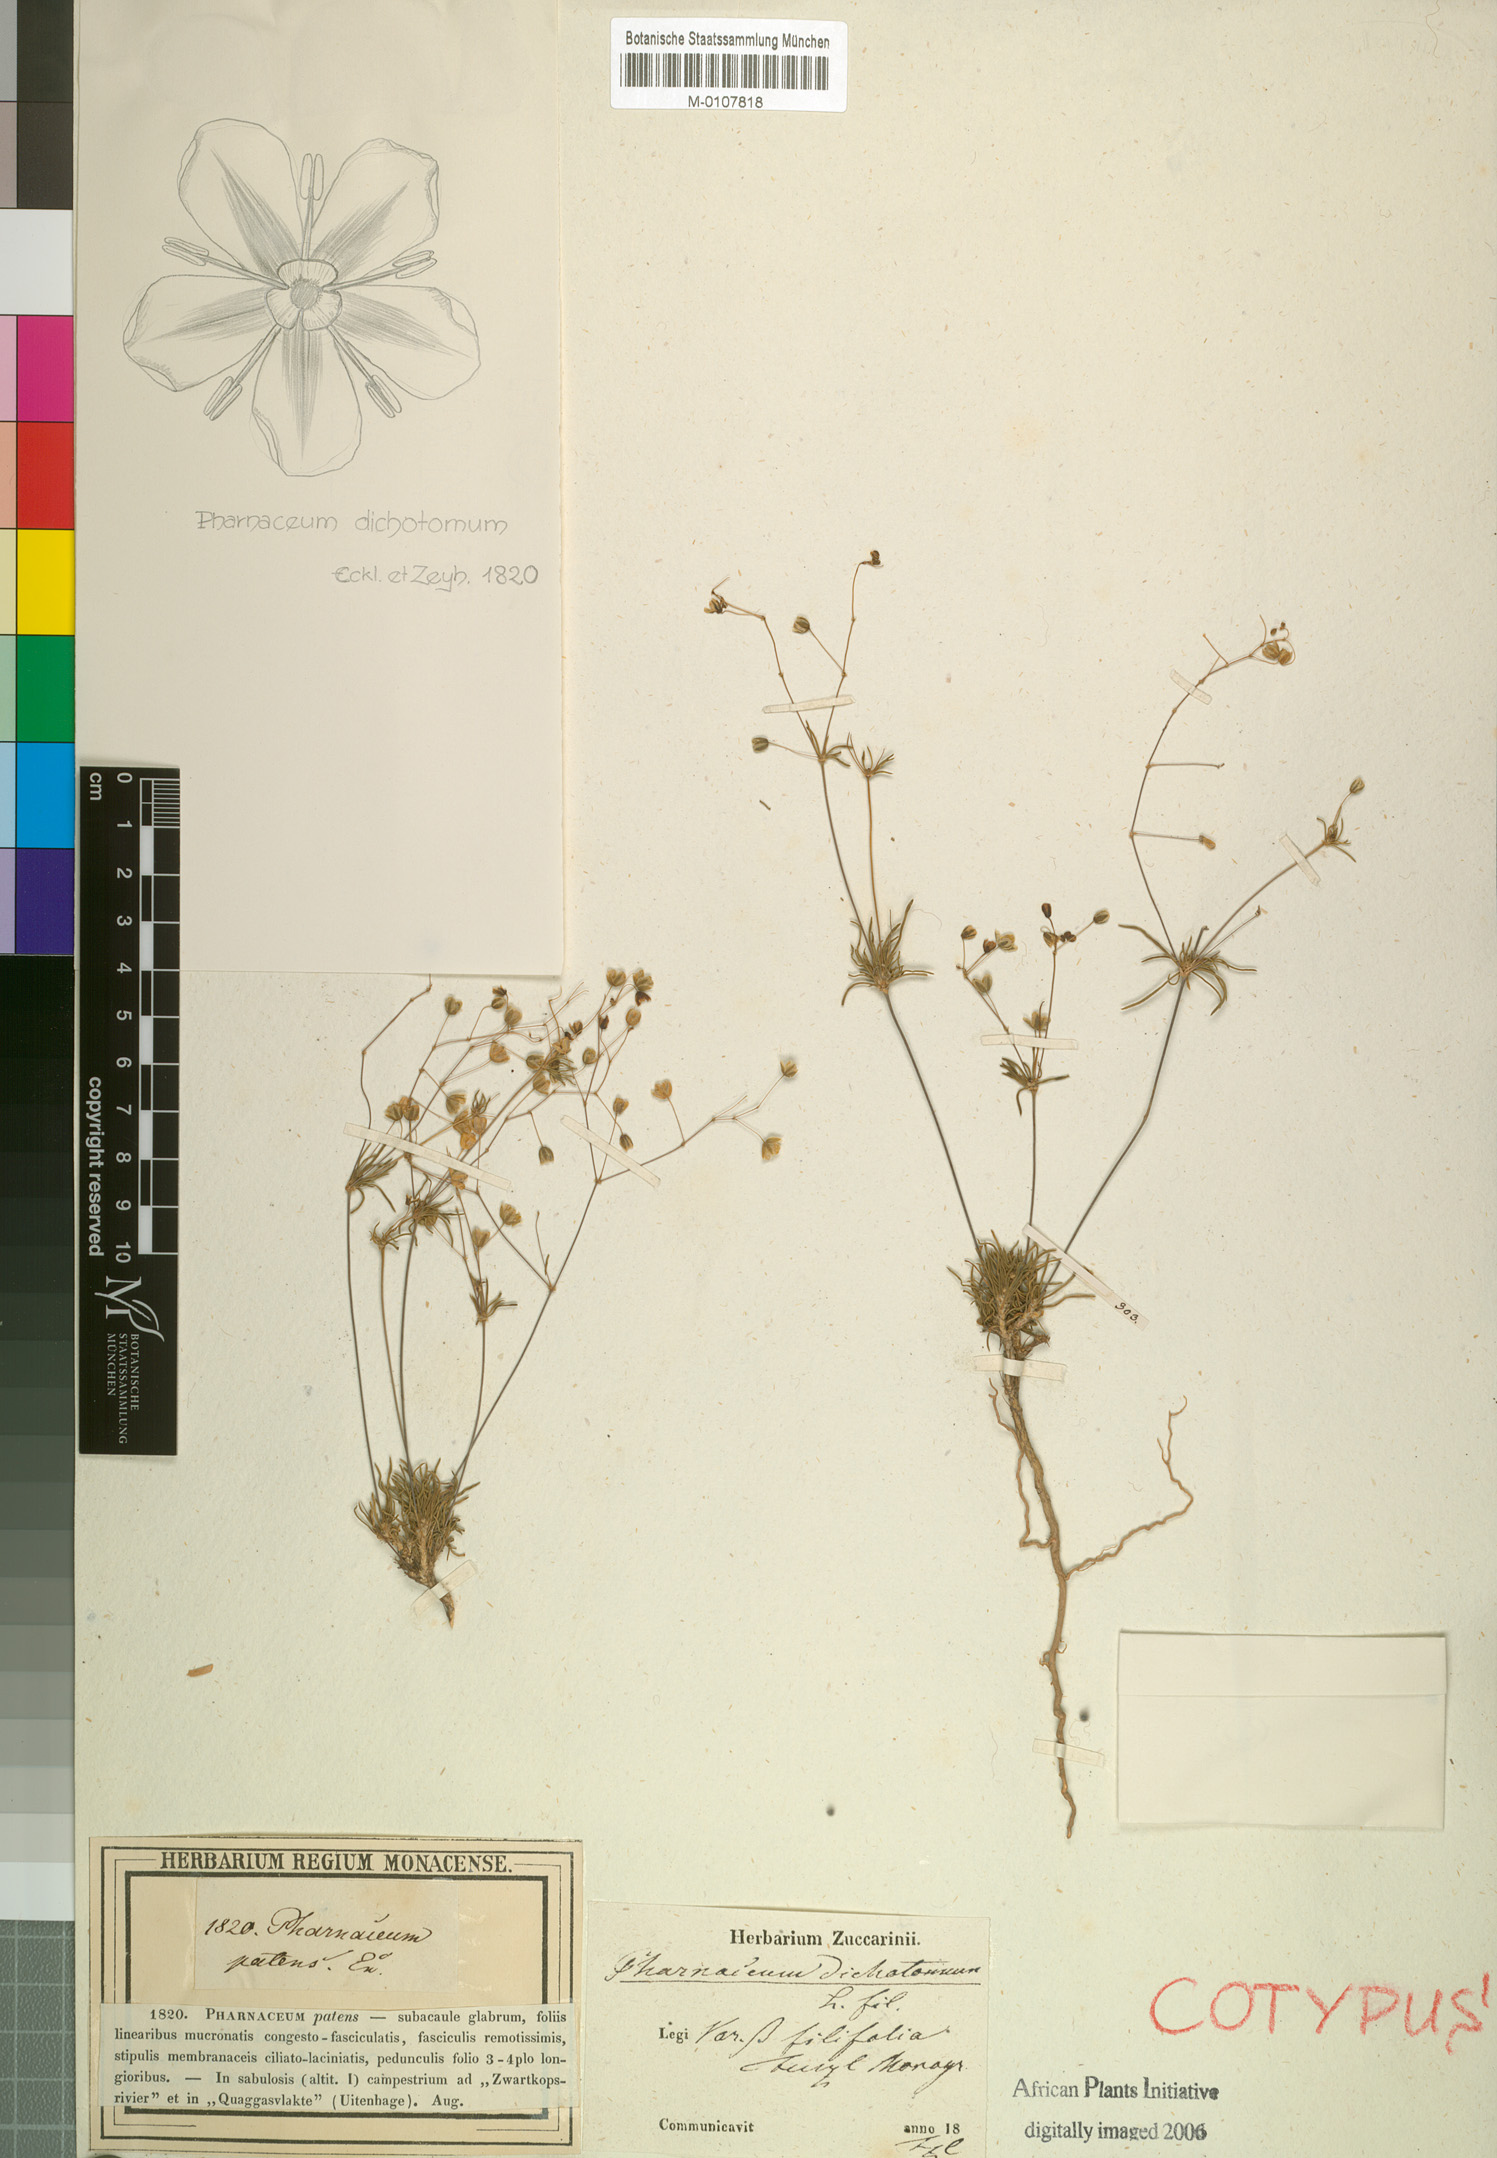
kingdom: Plantae
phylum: Tracheophyta
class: Magnoliopsida
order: Caryophyllales
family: Molluginaceae
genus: Pharnaceum
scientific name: Pharnaceum dichotomum
